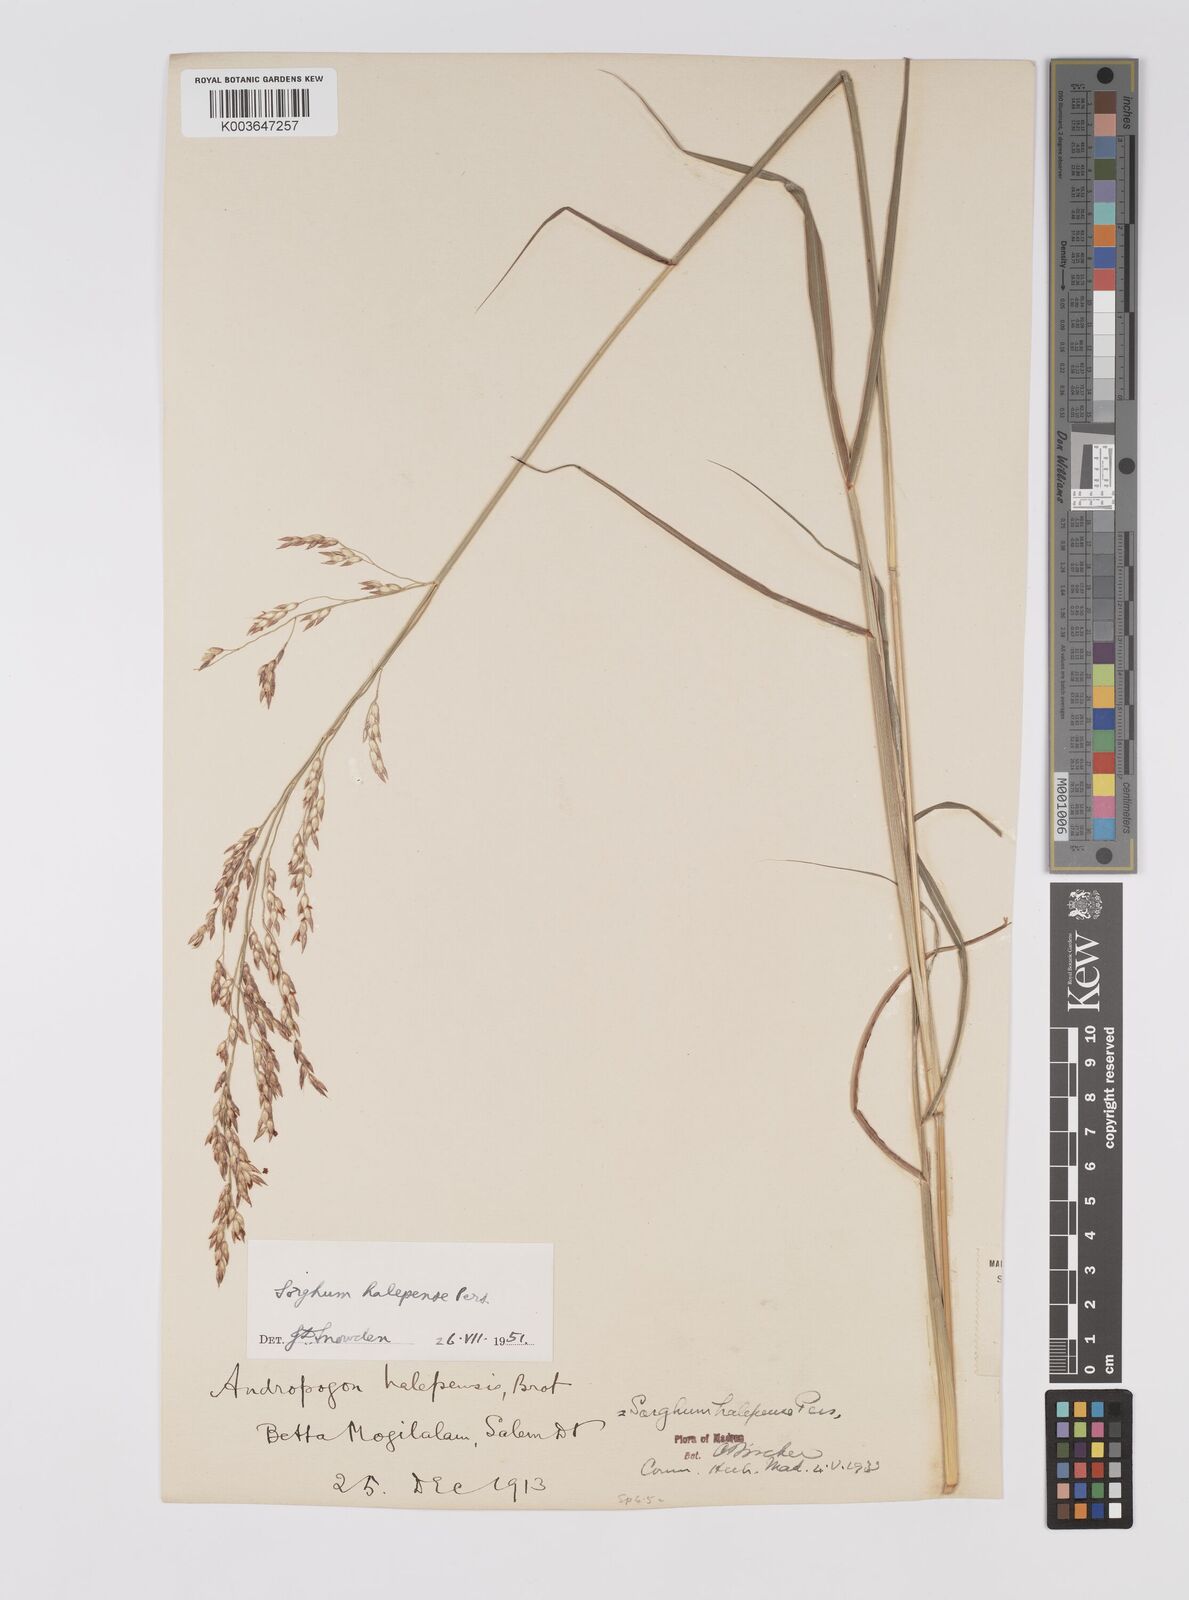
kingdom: Plantae
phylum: Tracheophyta
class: Liliopsida
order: Poales
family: Poaceae
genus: Sorghum
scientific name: Sorghum halepense
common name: Johnson-grass
